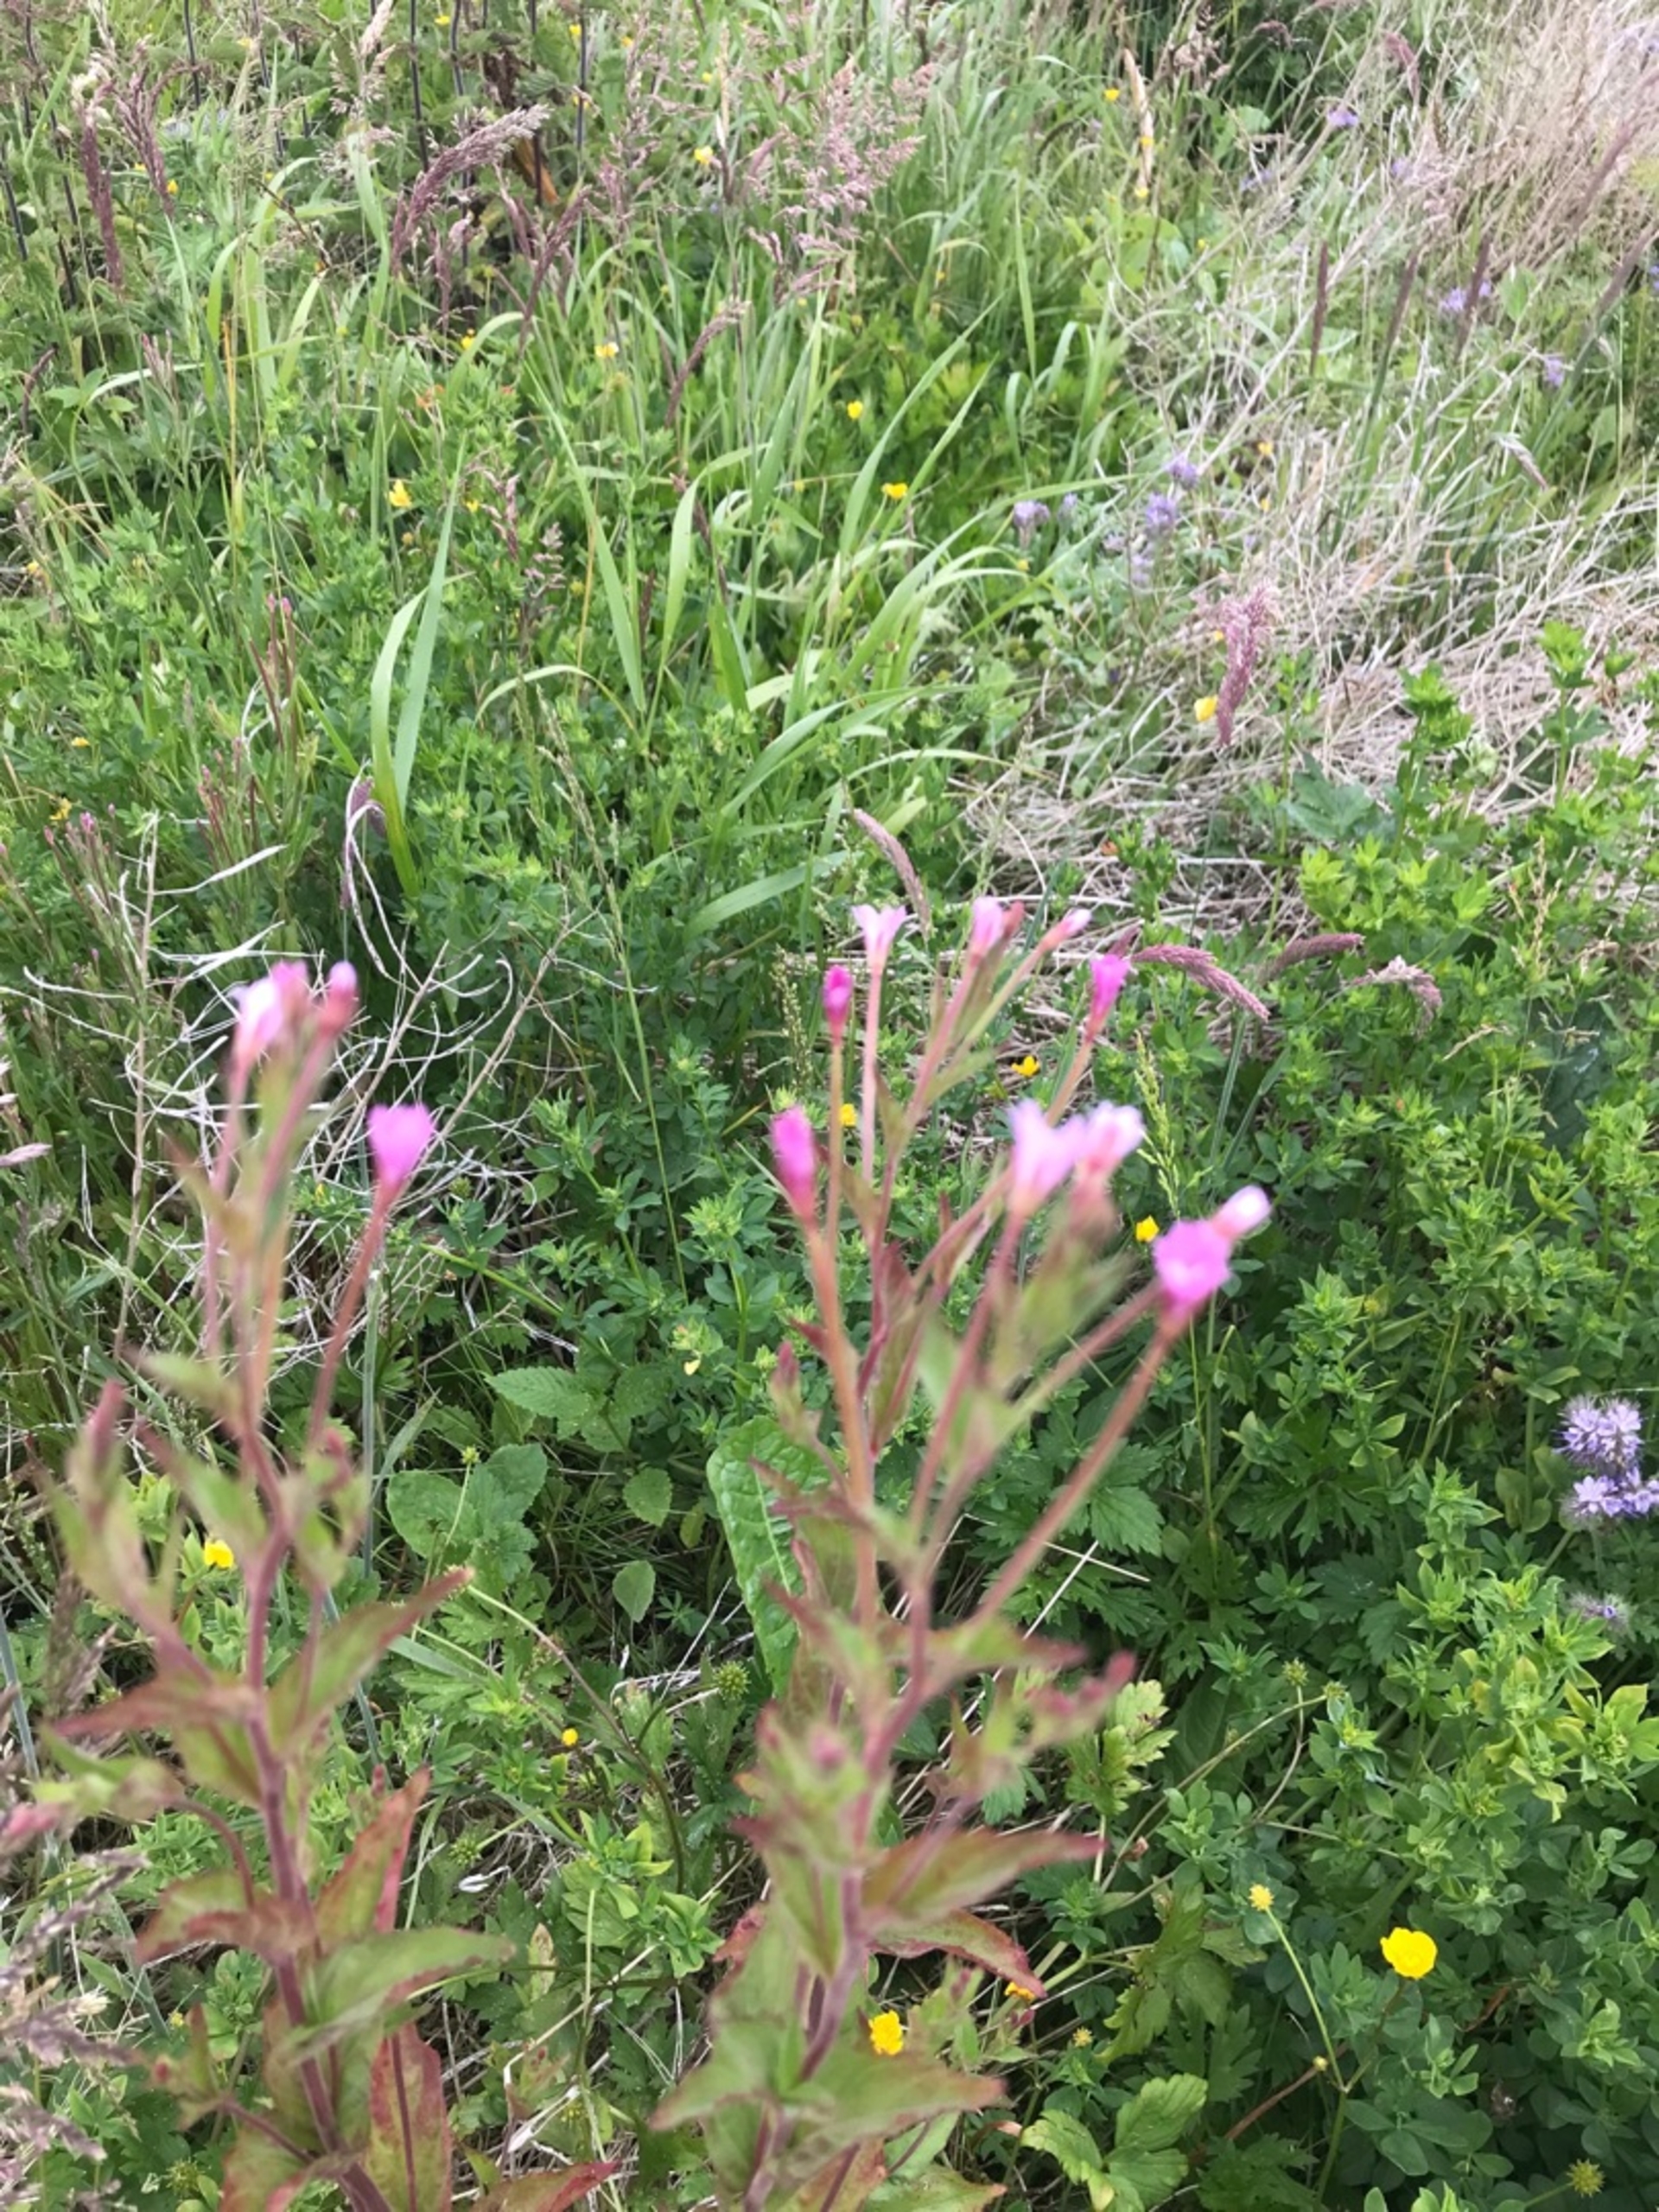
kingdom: Plantae
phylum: Tracheophyta
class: Magnoliopsida
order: Myrtales
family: Onagraceae
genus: Epilobium
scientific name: Epilobium montanum
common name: Glat dueurt
